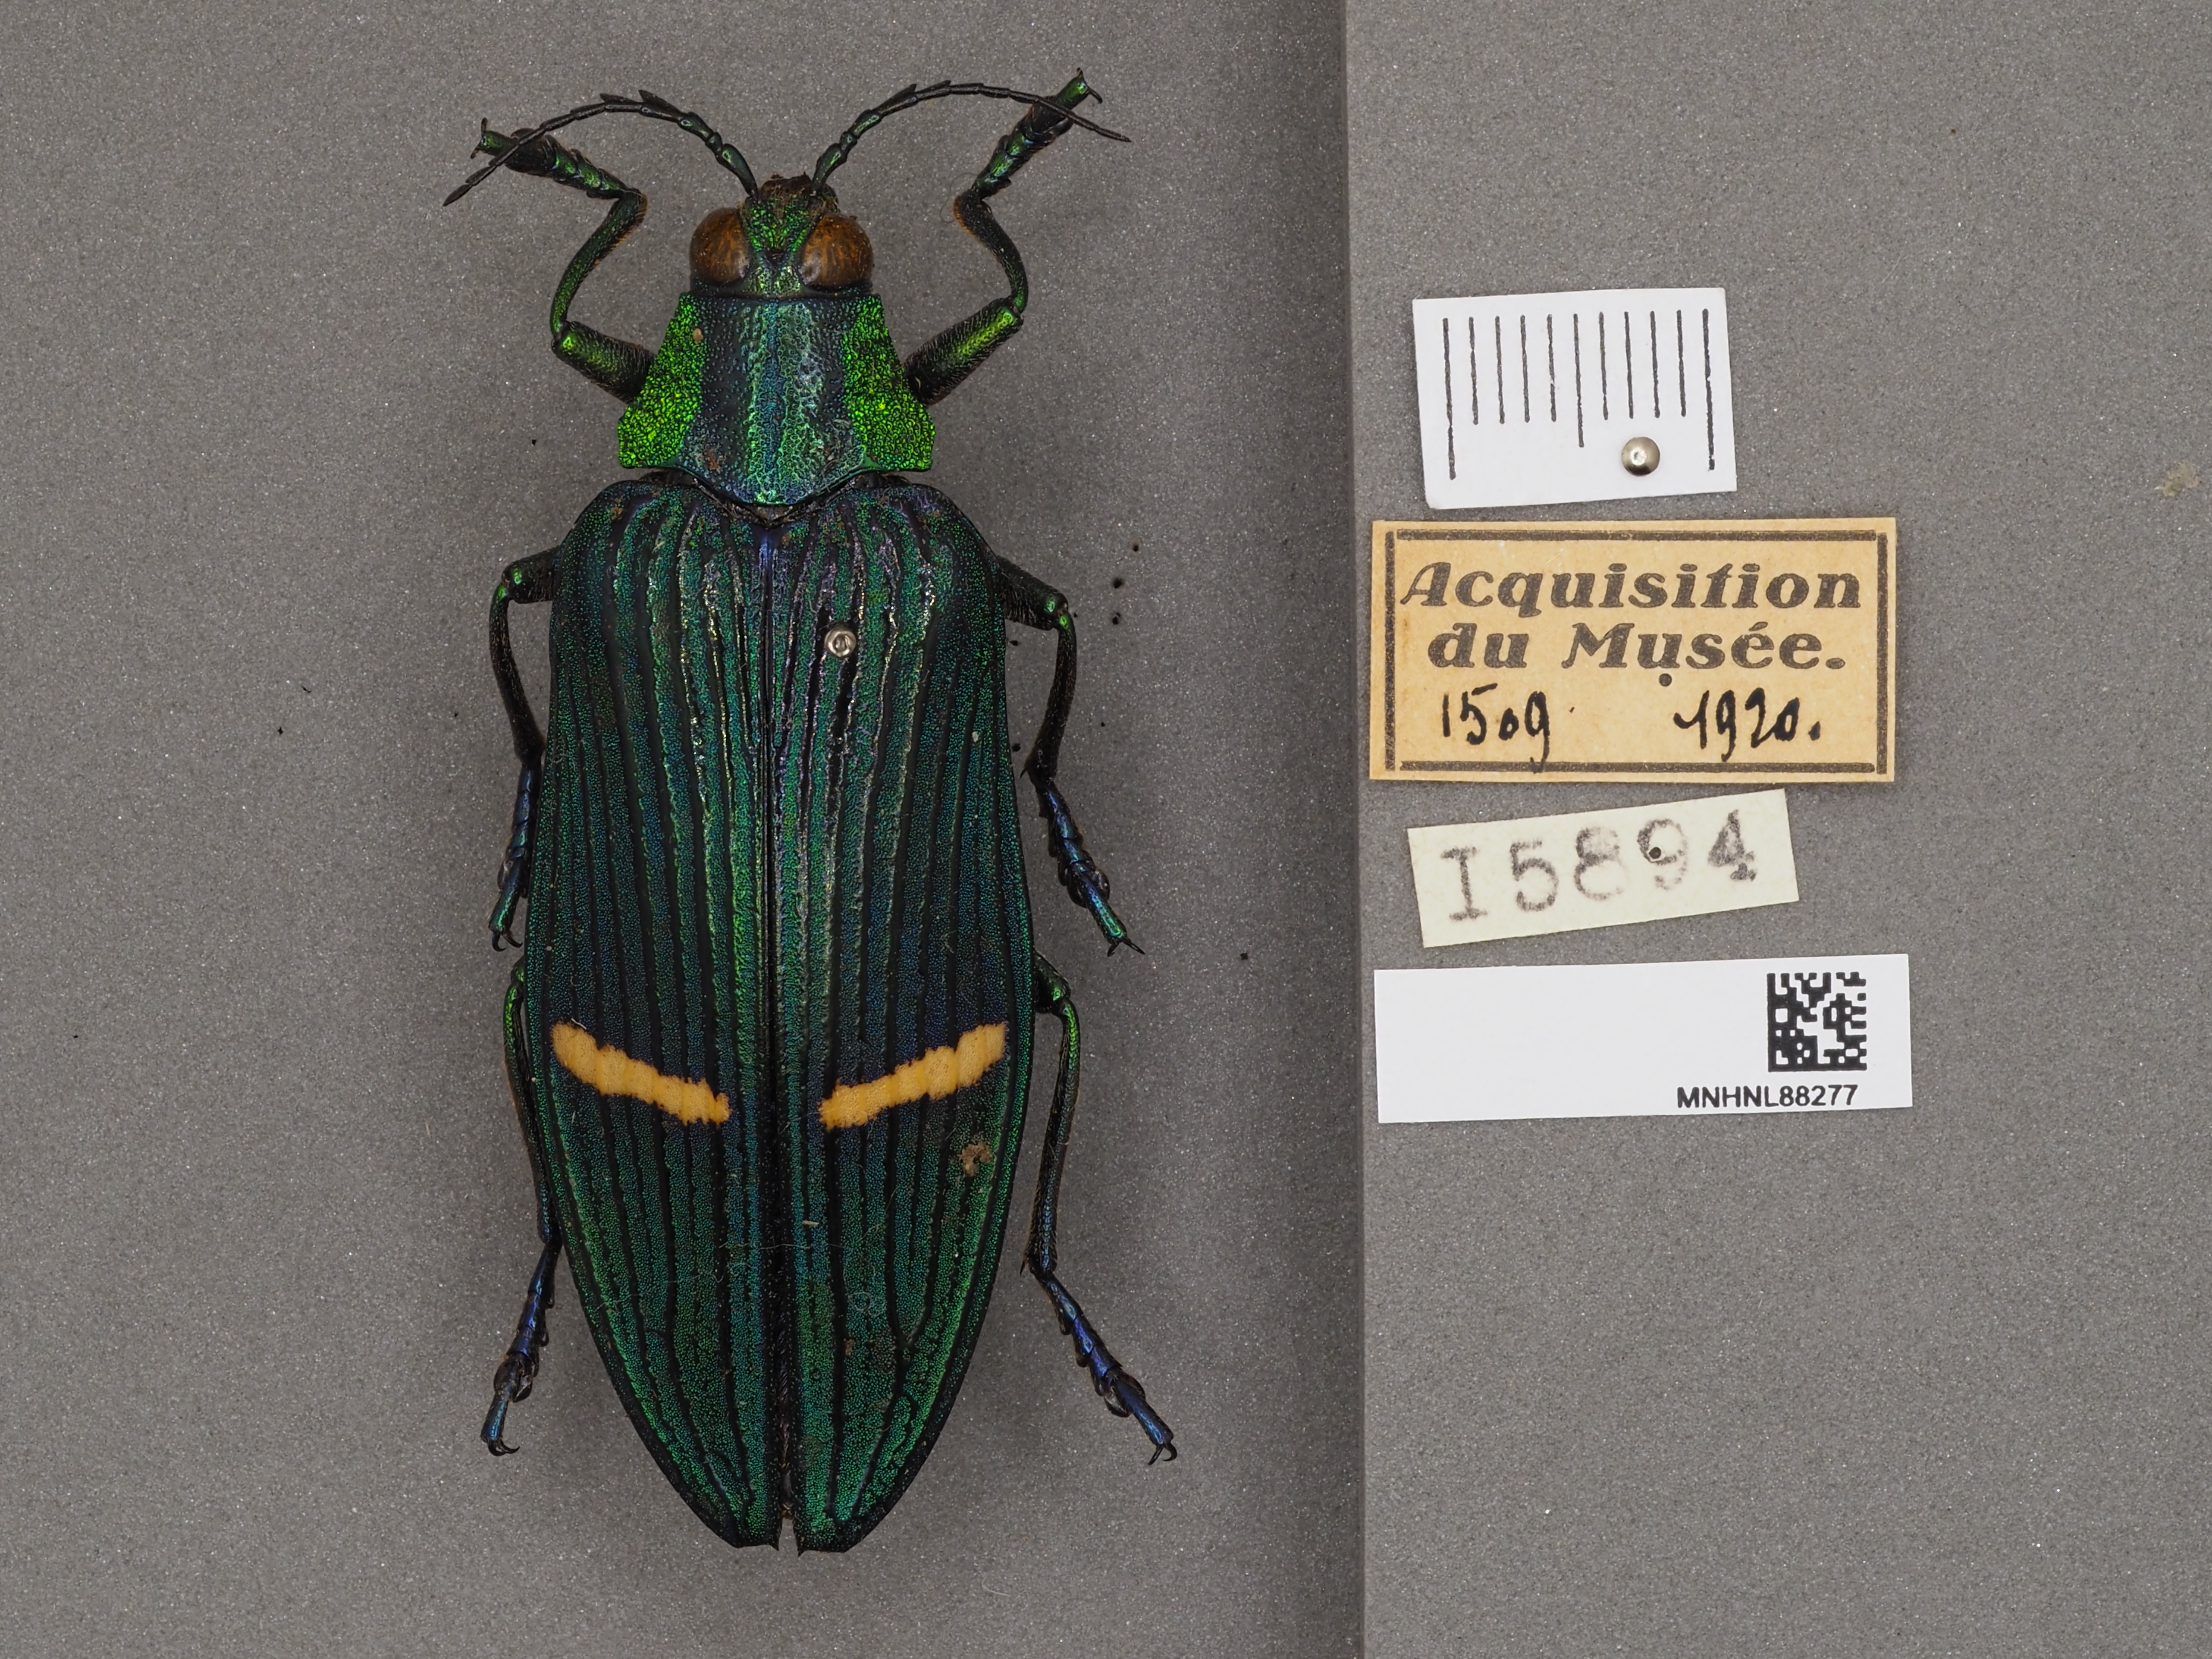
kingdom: Animalia
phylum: Arthropoda
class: Insecta
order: Coleoptera
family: Tenebrionidae
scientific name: Tenebrionidae
